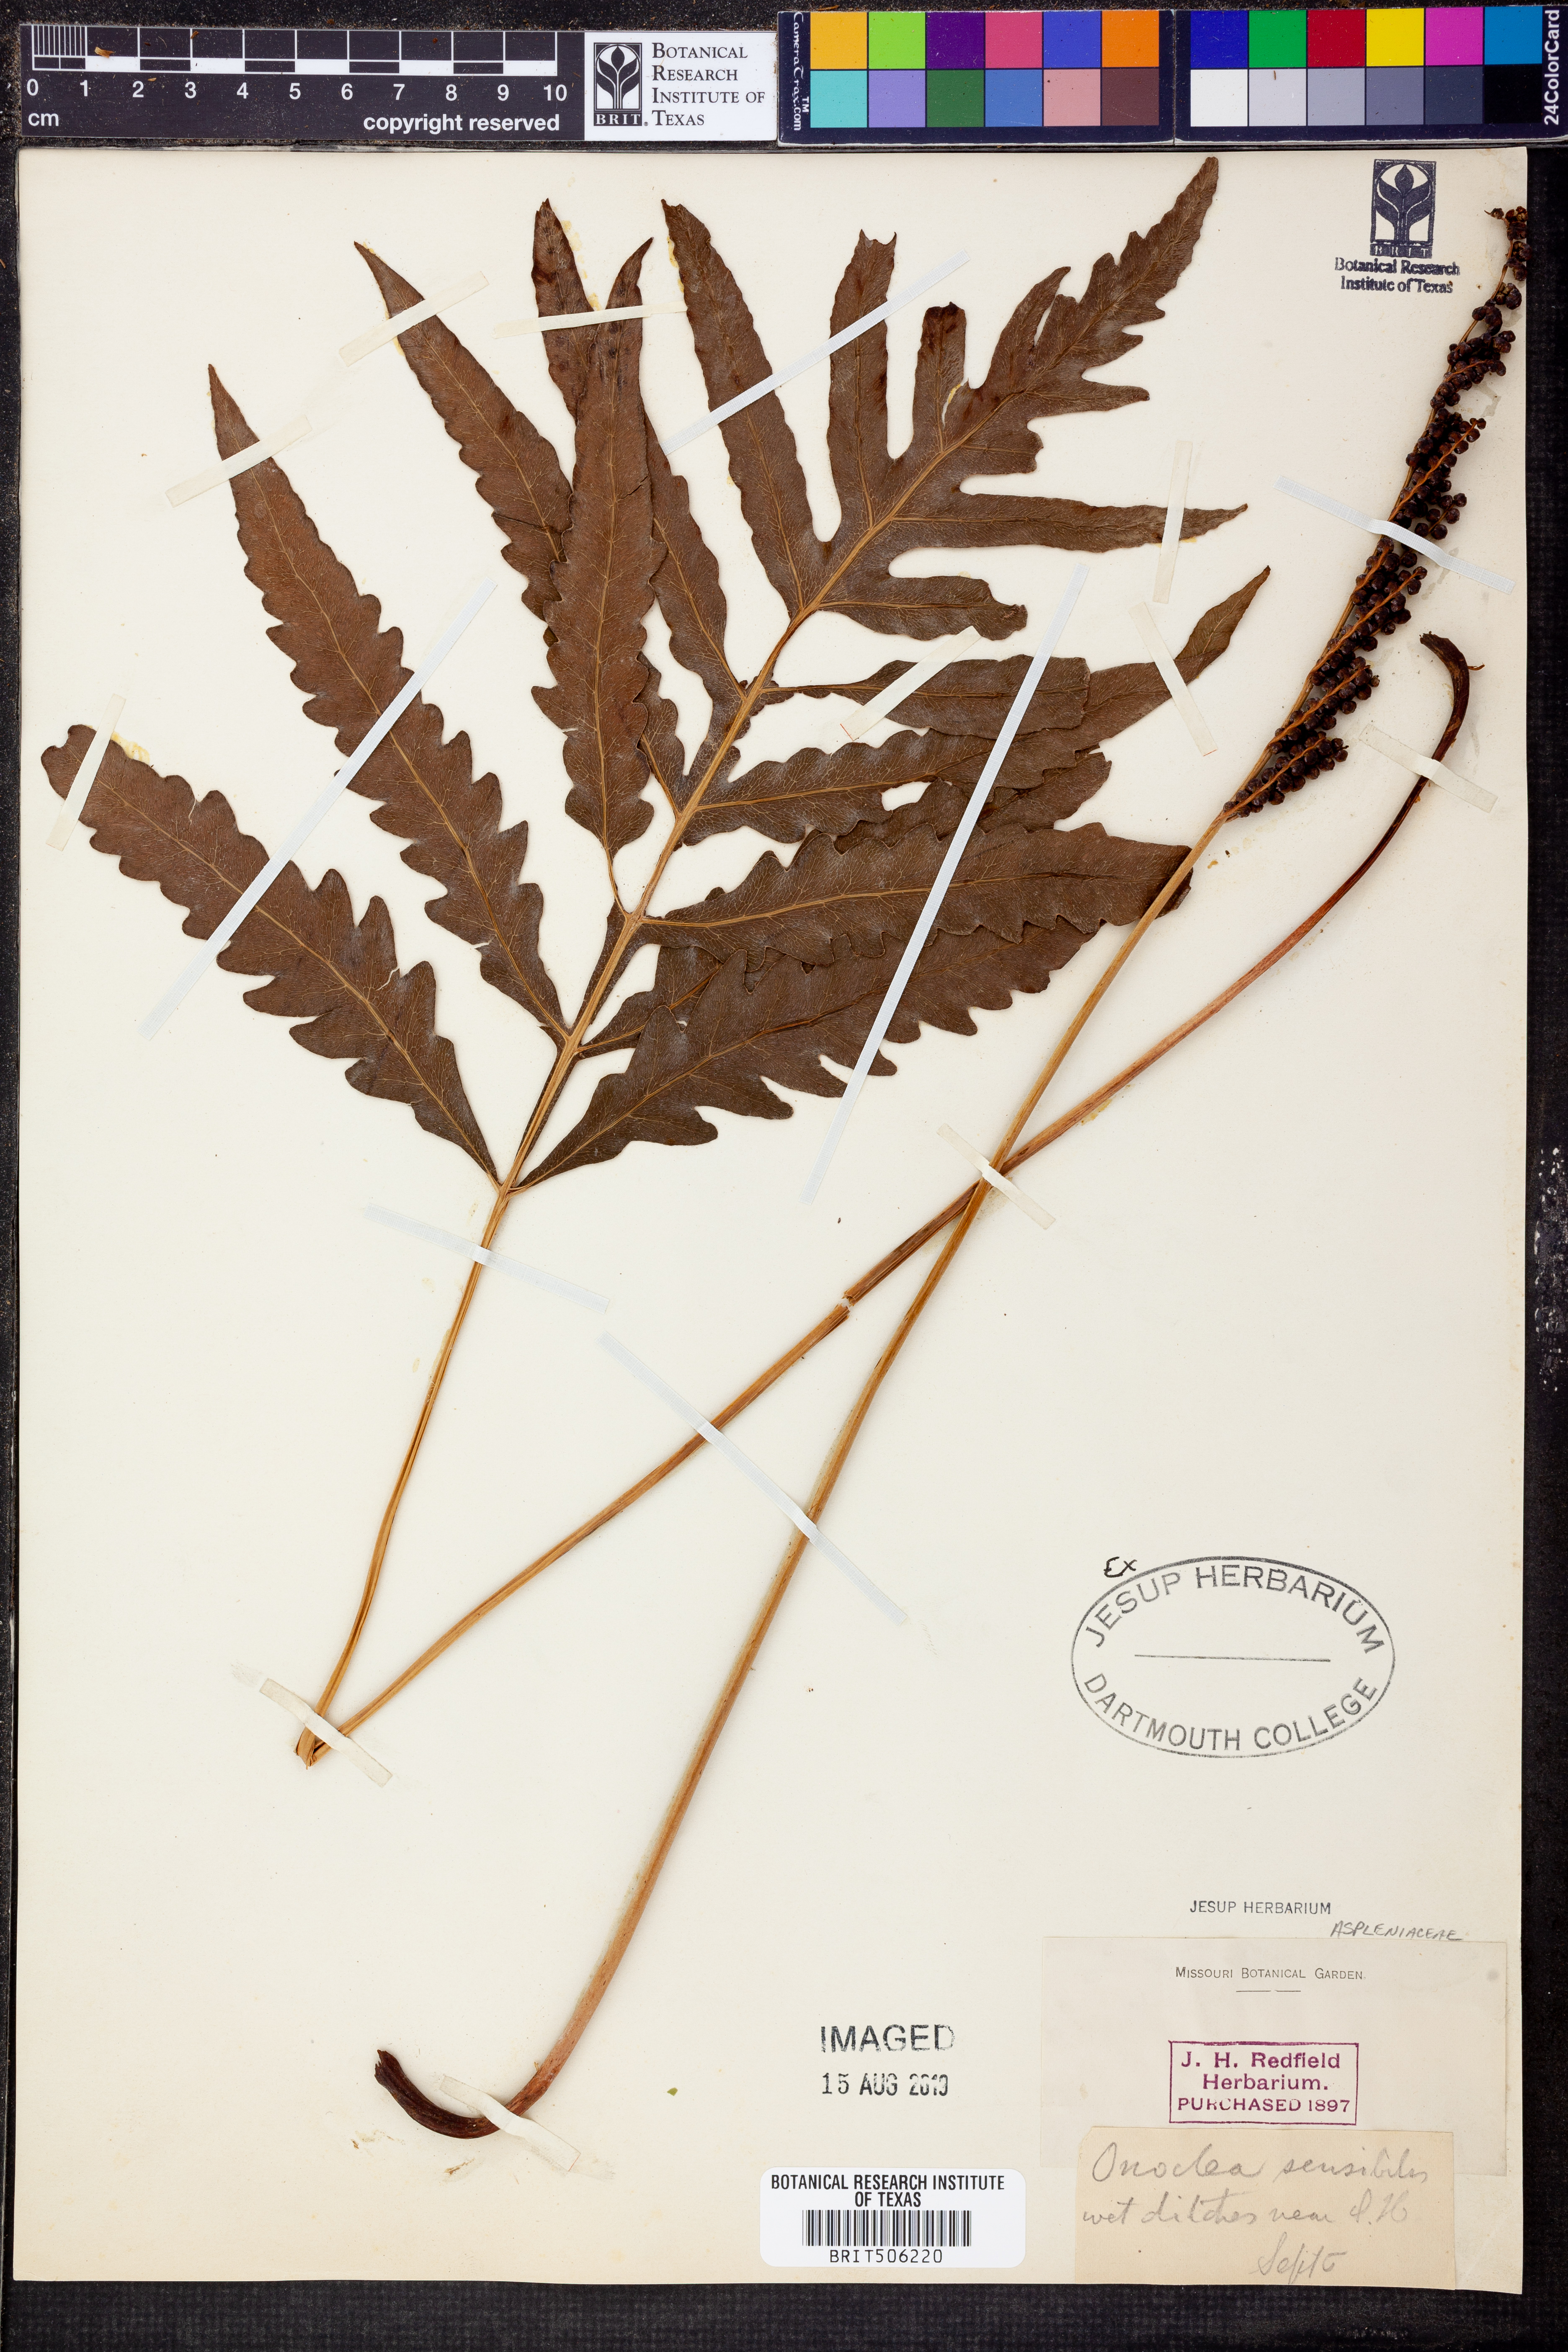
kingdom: Plantae
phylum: Tracheophyta
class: Polypodiopsida
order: Polypodiales
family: Onocleaceae
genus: Onoclea
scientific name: Onoclea sensibilis
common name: Sensitive fern
